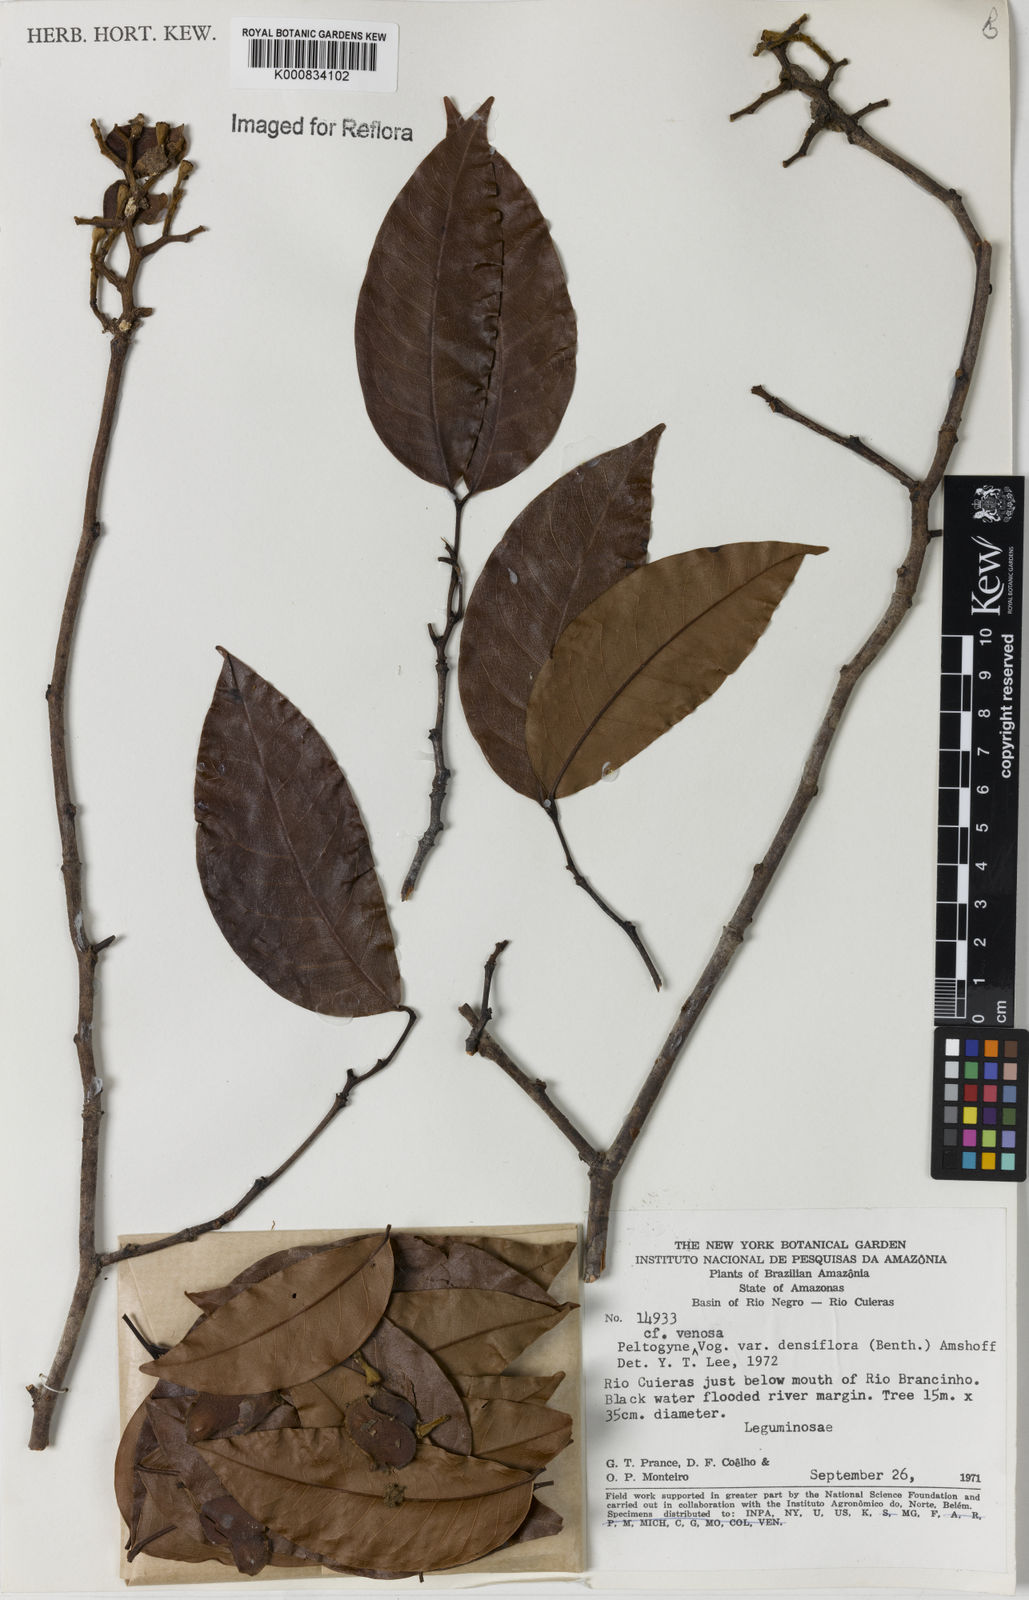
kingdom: Plantae
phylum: Tracheophyta
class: Magnoliopsida
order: Fabales
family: Fabaceae
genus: Peltogyne
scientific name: Peltogyne venosa
